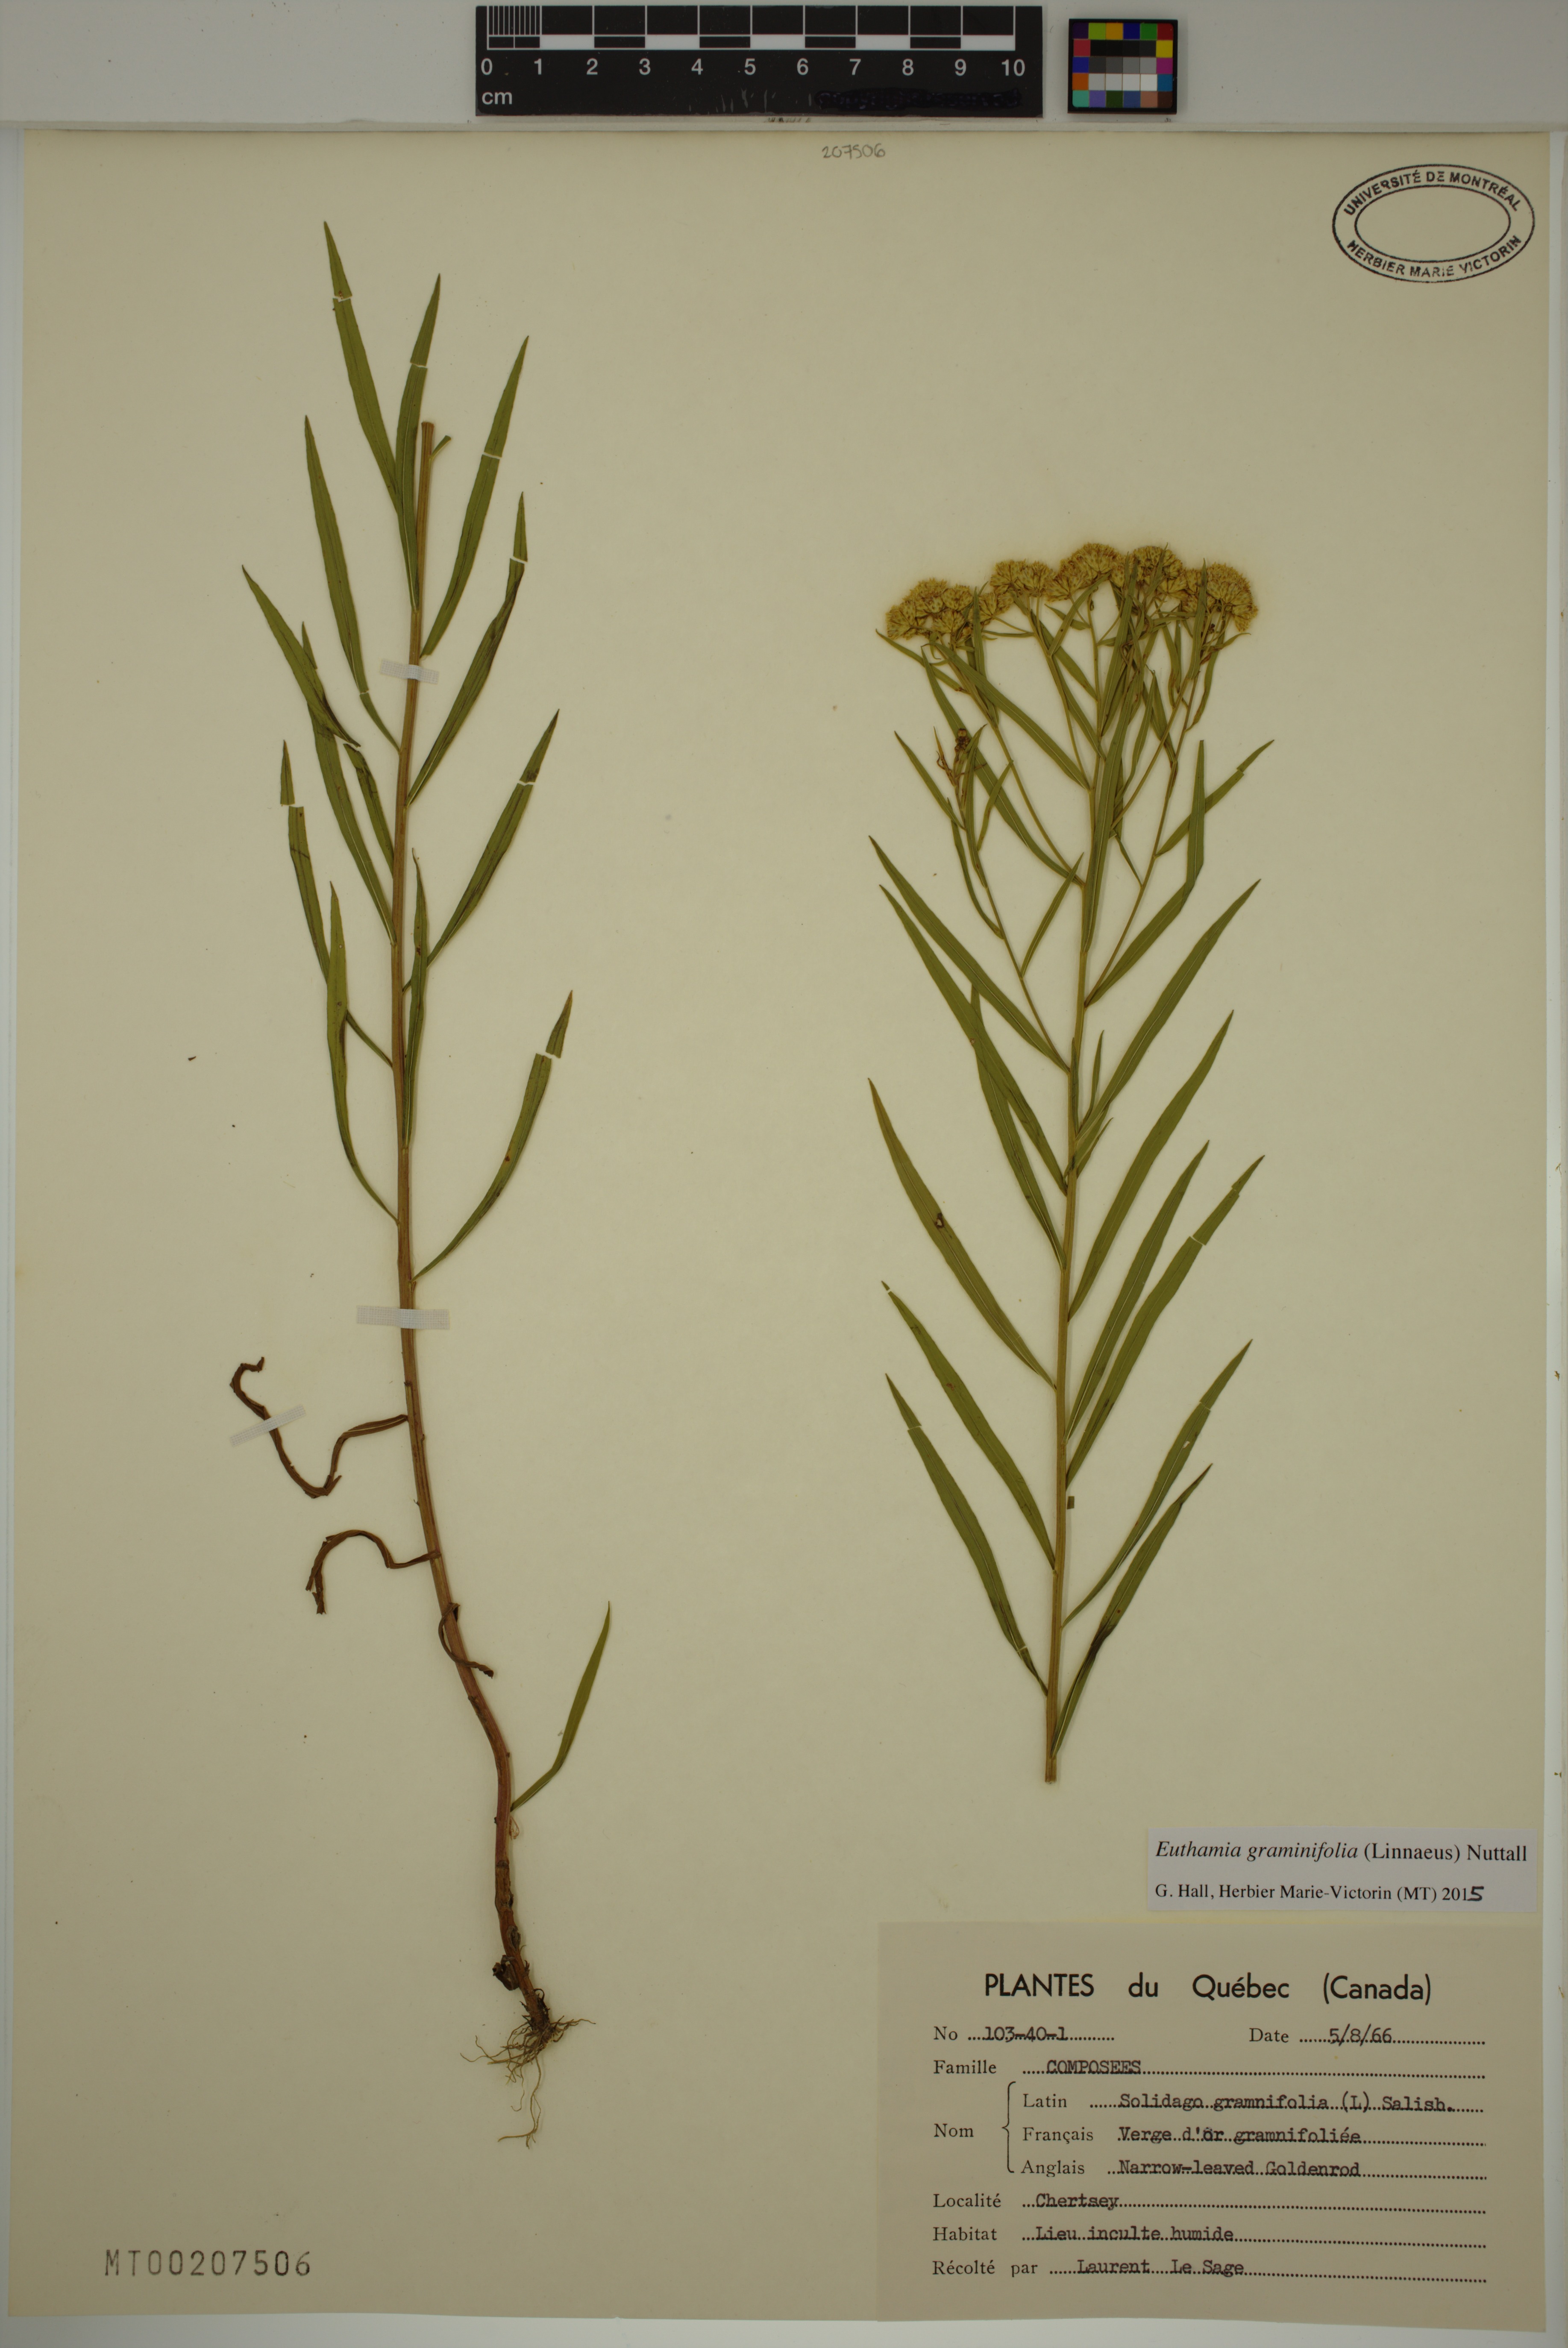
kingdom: Plantae
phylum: Tracheophyta
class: Magnoliopsida
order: Asterales
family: Asteraceae
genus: Euthamia
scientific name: Euthamia graminifolia
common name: Common goldentop
